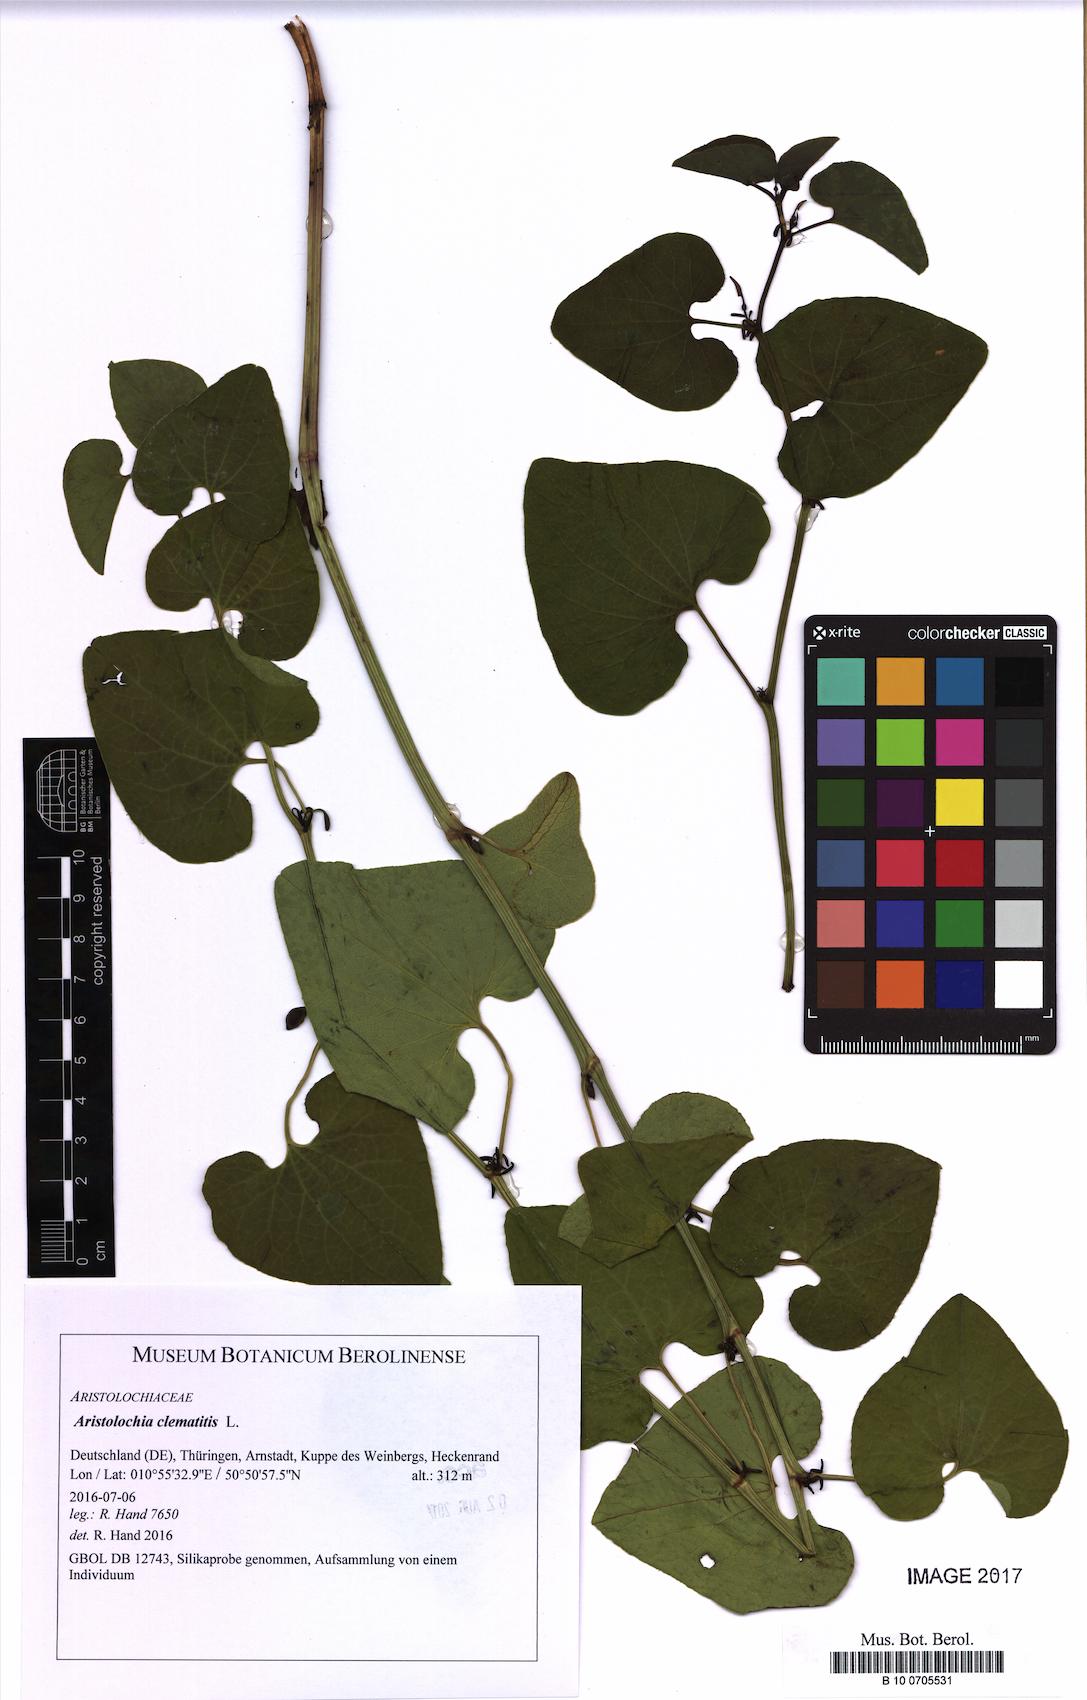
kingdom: Plantae
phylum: Tracheophyta
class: Magnoliopsida
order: Piperales
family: Aristolochiaceae
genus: Aristolochia
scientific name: Aristolochia clematitis
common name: Birthwort
